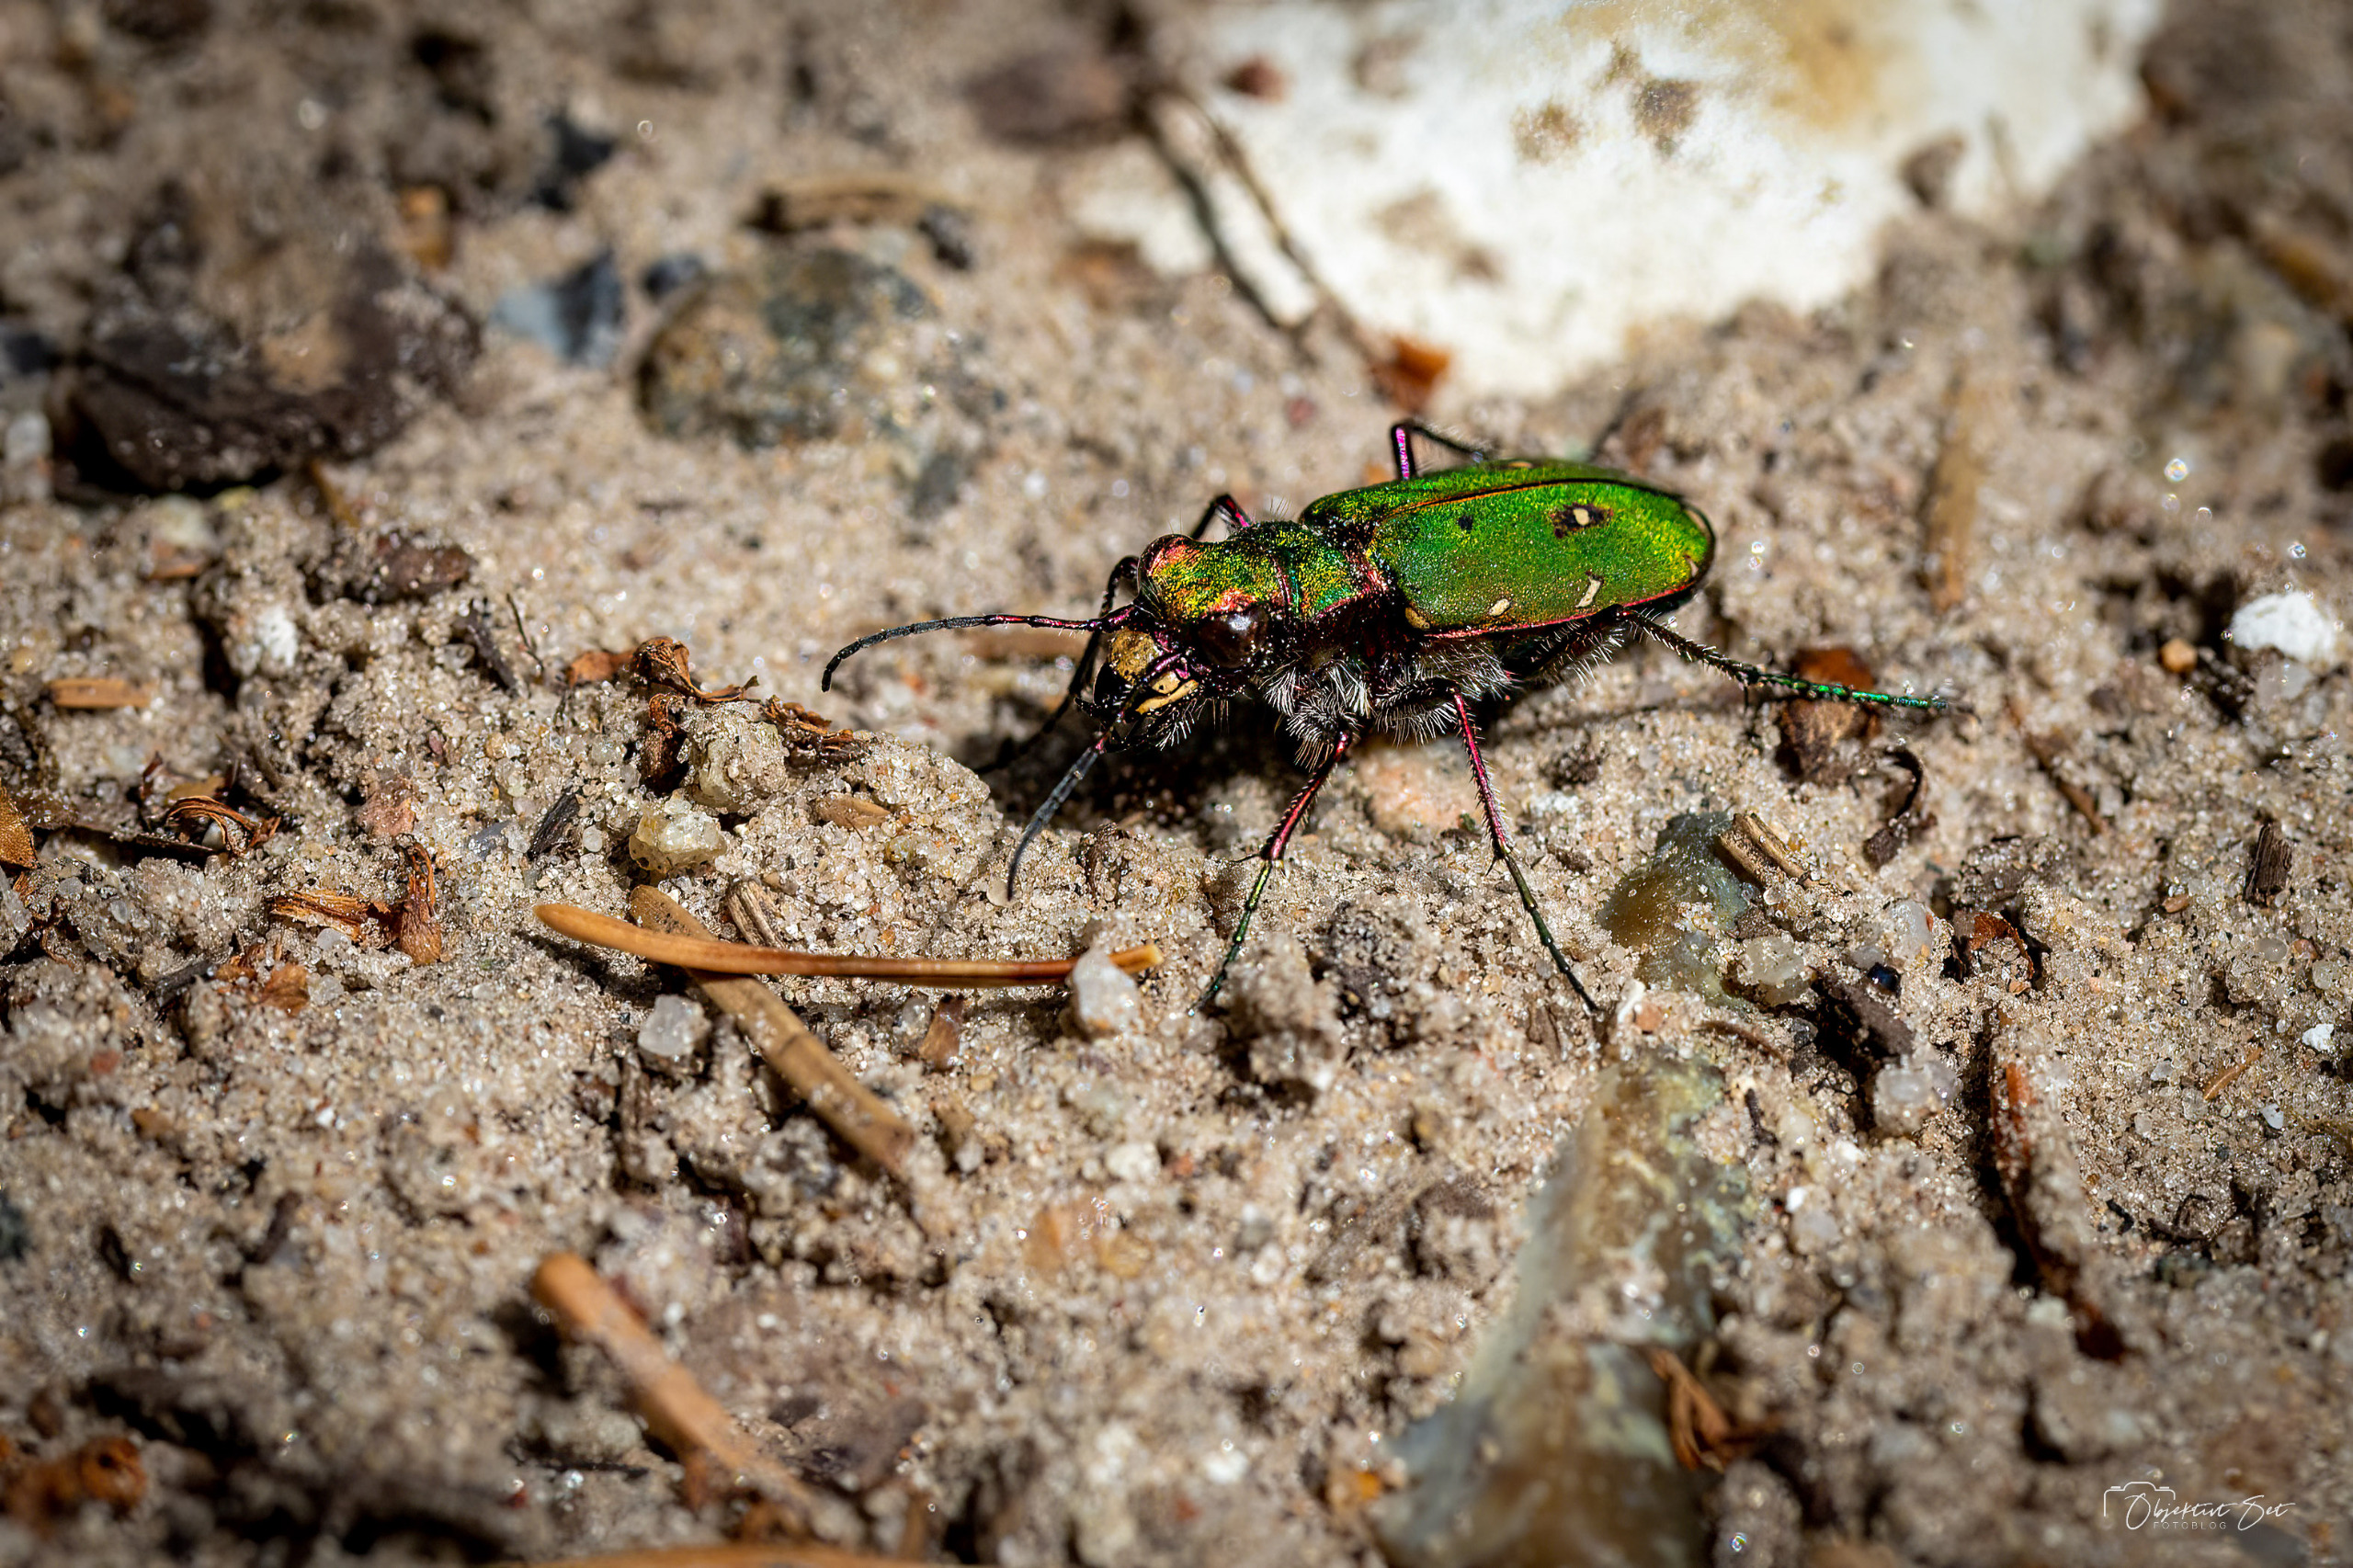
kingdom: Animalia
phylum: Arthropoda
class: Insecta
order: Coleoptera
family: Carabidae
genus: Cicindela
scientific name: Cicindela campestris
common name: Grøn sandspringer
